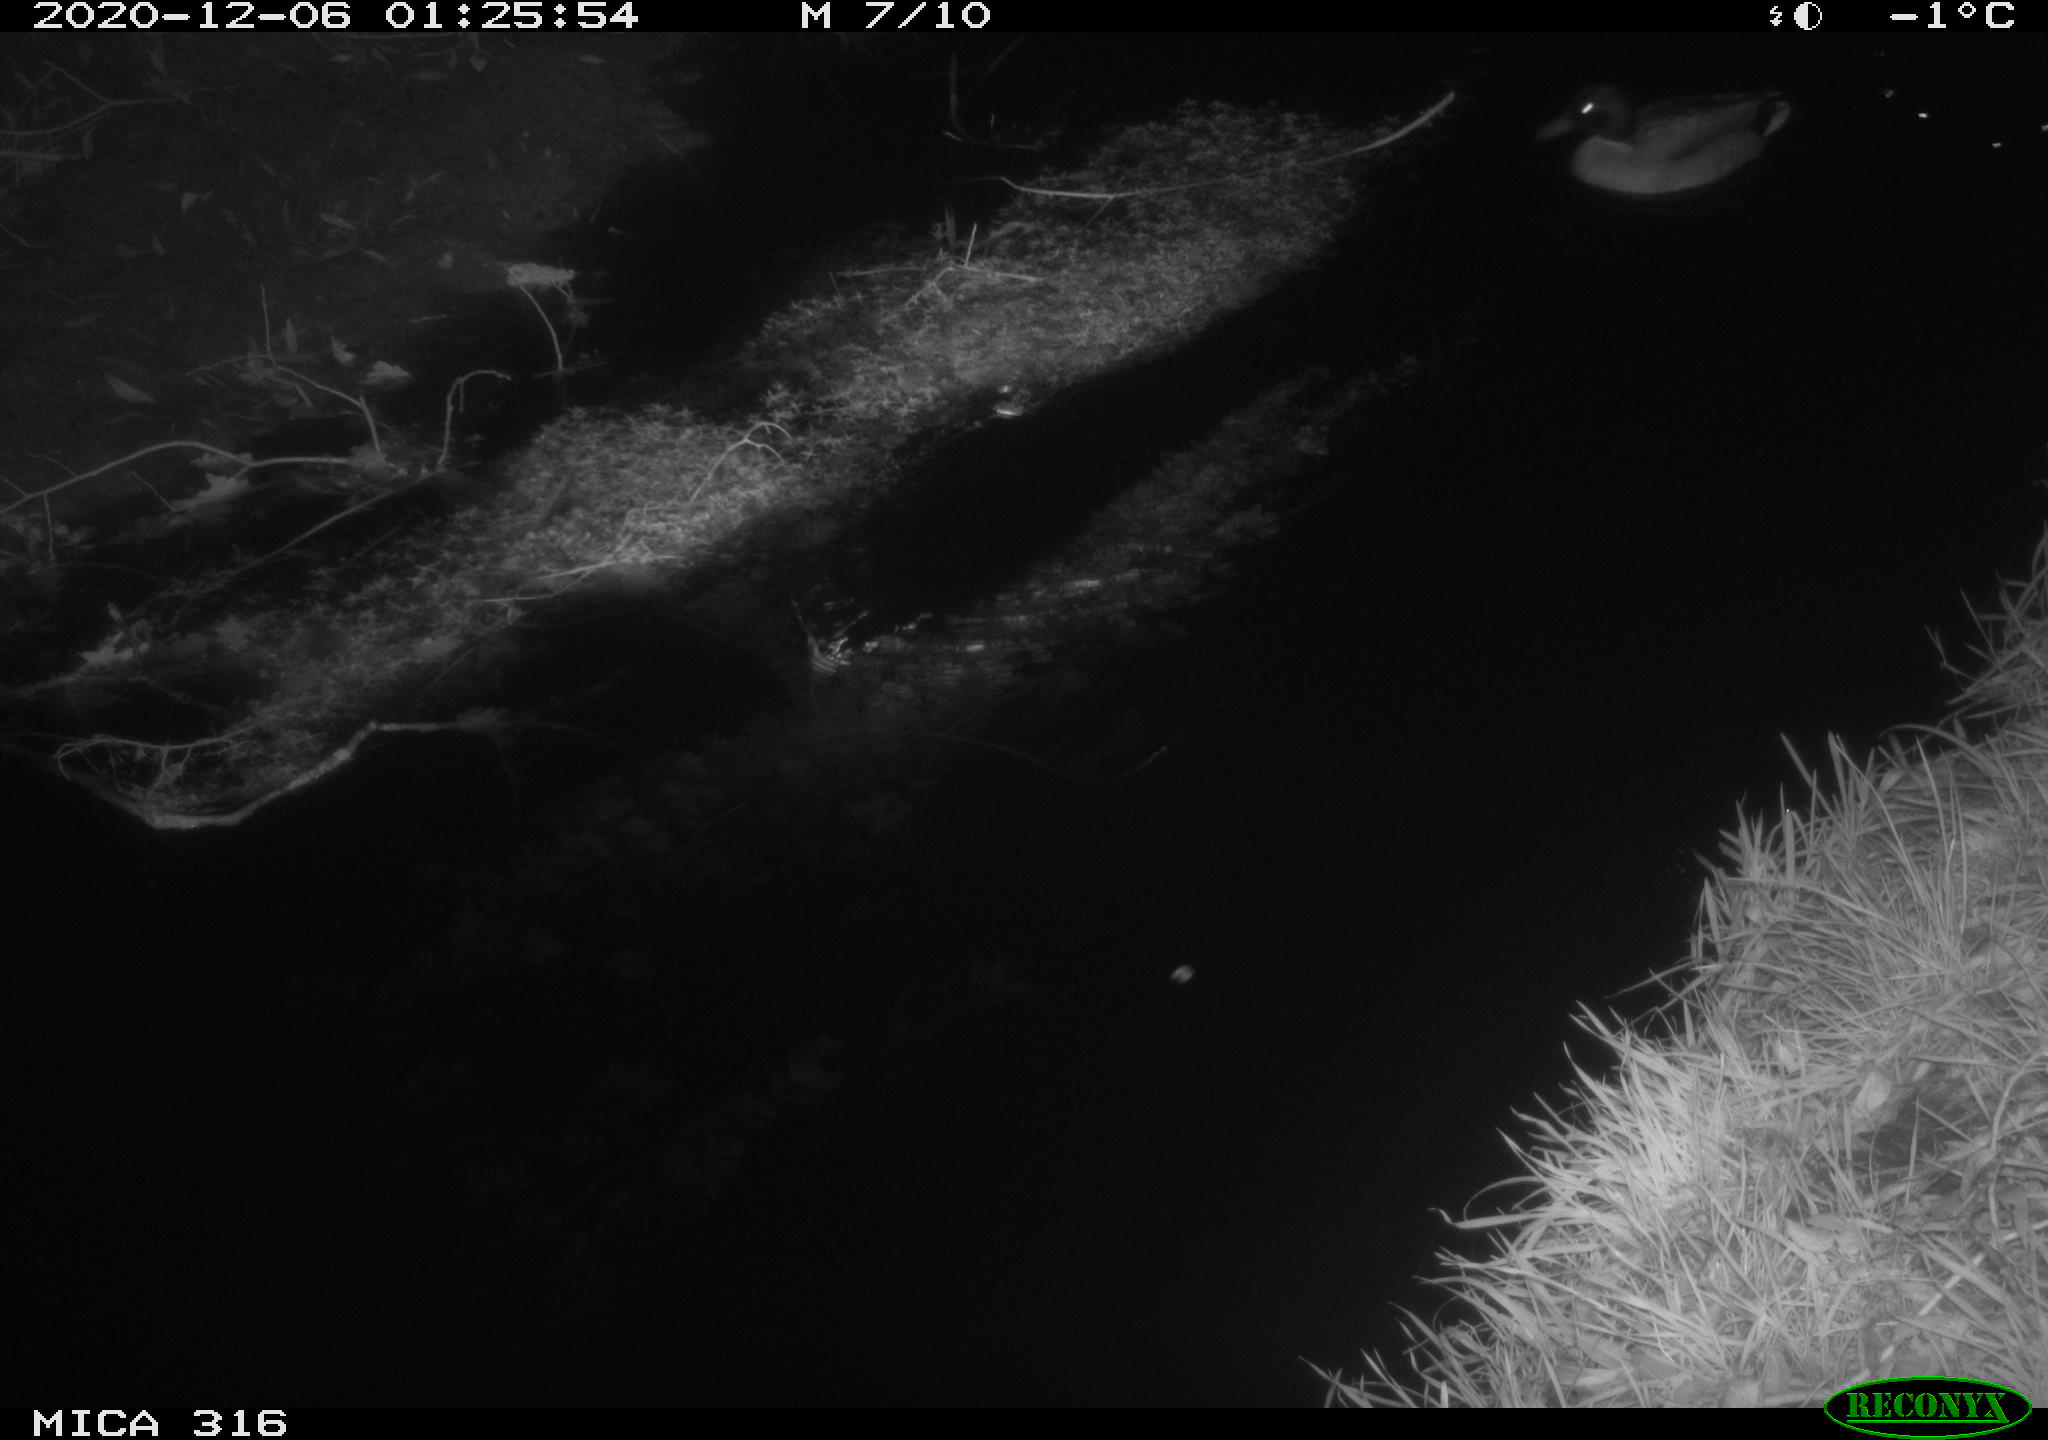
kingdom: Animalia
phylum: Chordata
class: Aves
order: Anseriformes
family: Anatidae
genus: Anas
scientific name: Anas platyrhynchos
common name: Mallard
